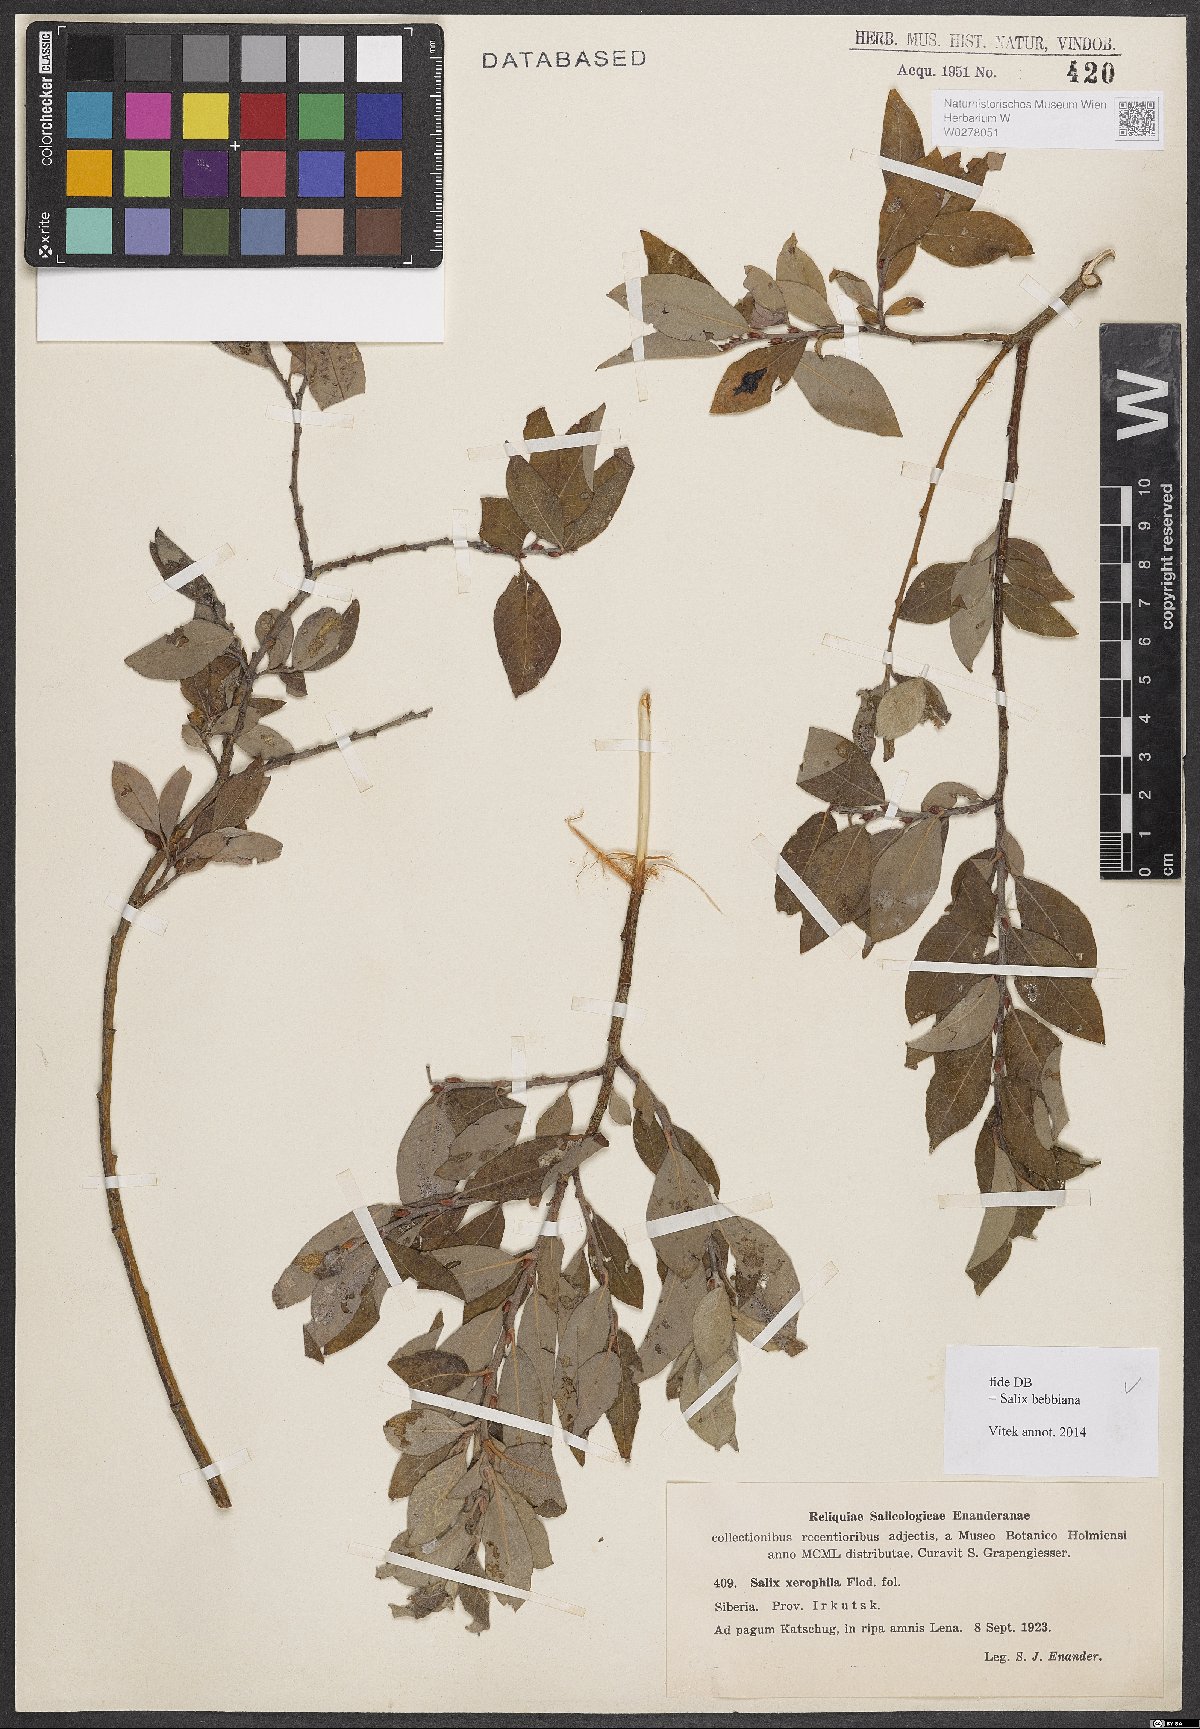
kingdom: Plantae
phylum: Tracheophyta
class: Magnoliopsida
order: Malpighiales
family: Salicaceae
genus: Salix
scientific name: Salix bebbiana
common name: Bebb's willow
